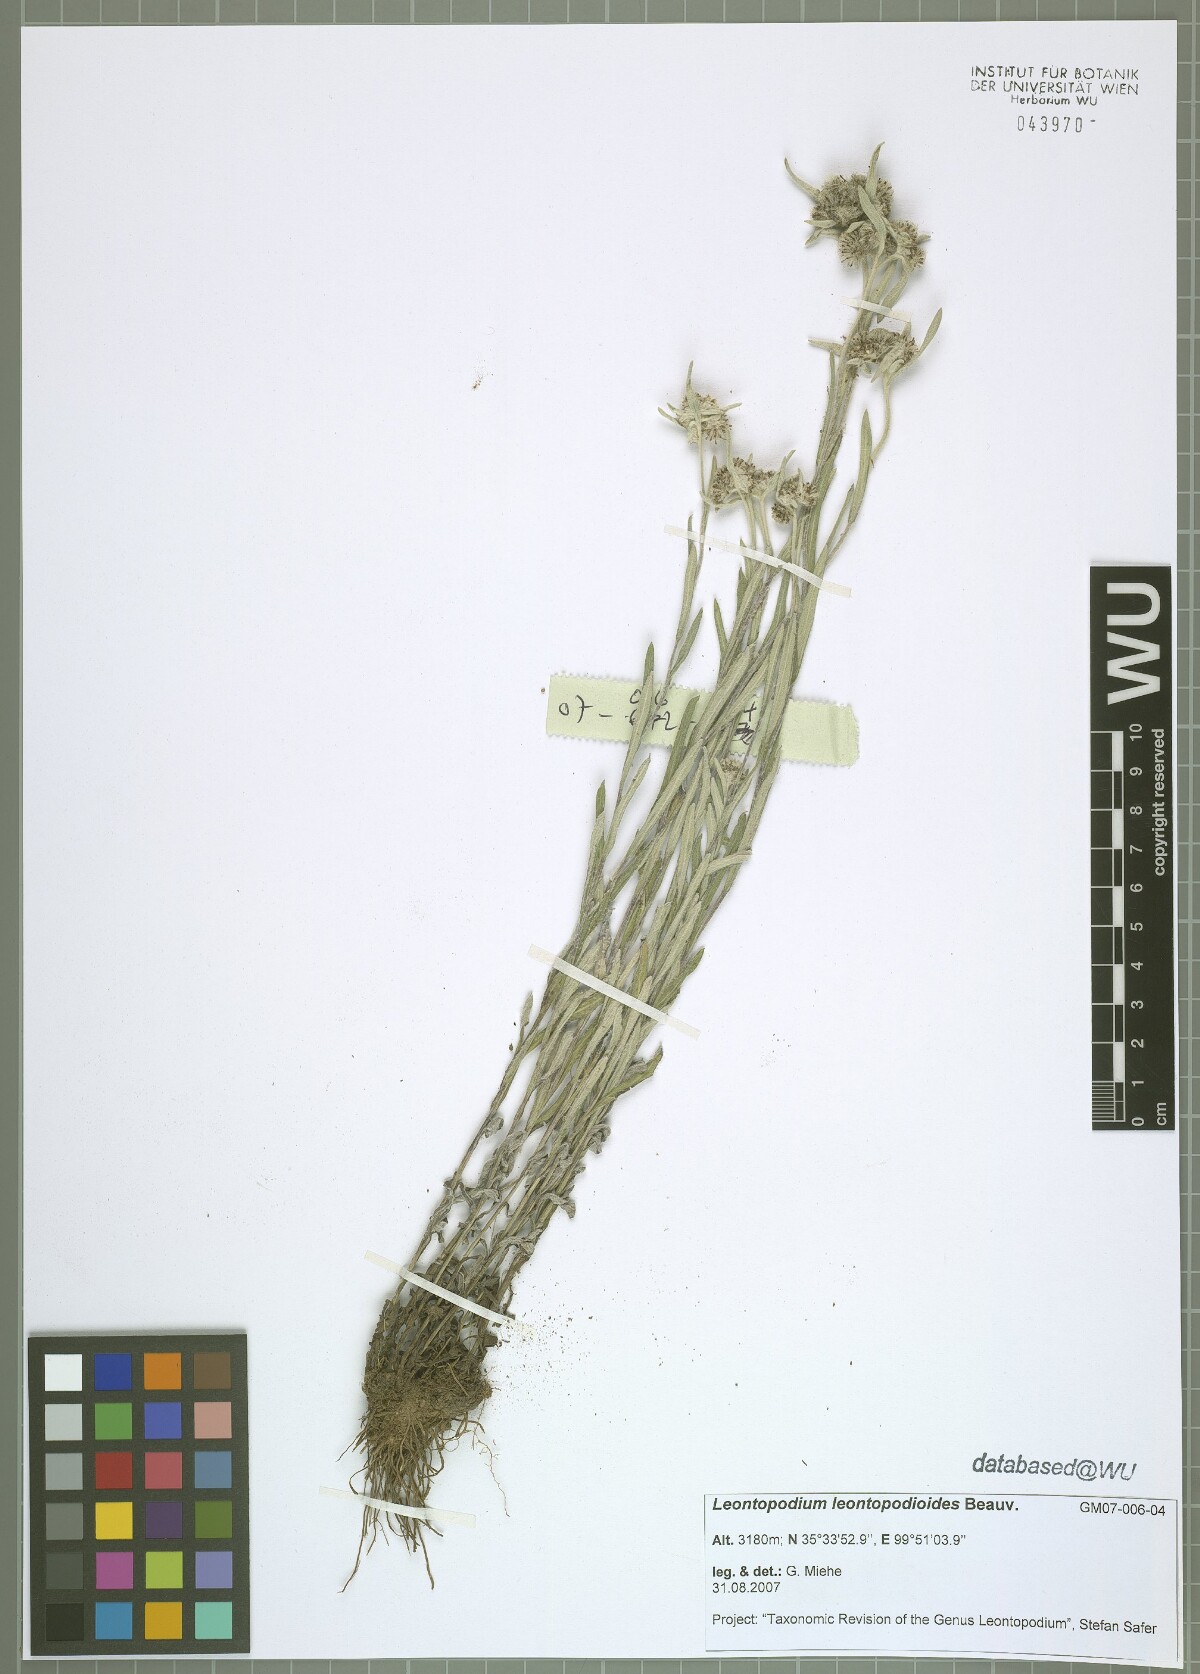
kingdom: Plantae
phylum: Tracheophyta
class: Magnoliopsida
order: Asterales
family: Asteraceae
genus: Leontopodium
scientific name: Leontopodium leontopodioides
